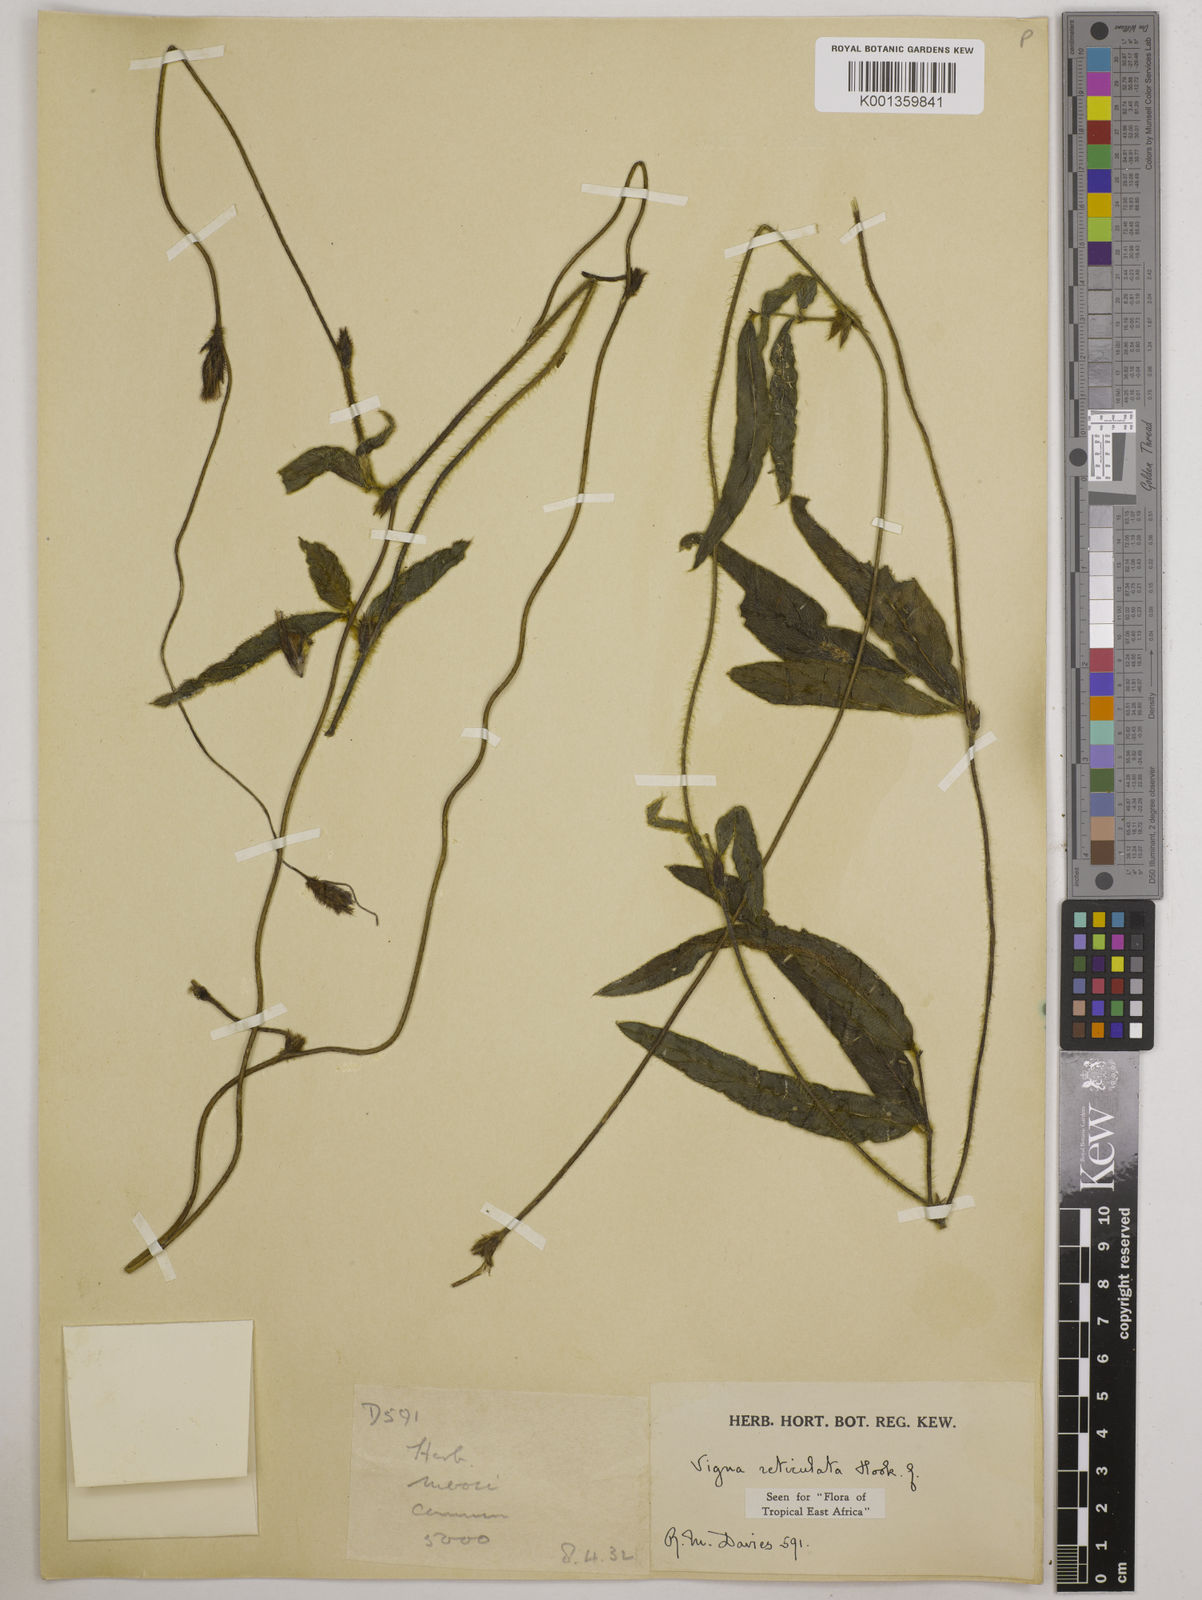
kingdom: Plantae
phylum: Tracheophyta
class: Magnoliopsida
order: Fabales
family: Fabaceae
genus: Vigna
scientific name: Vigna reticulata
